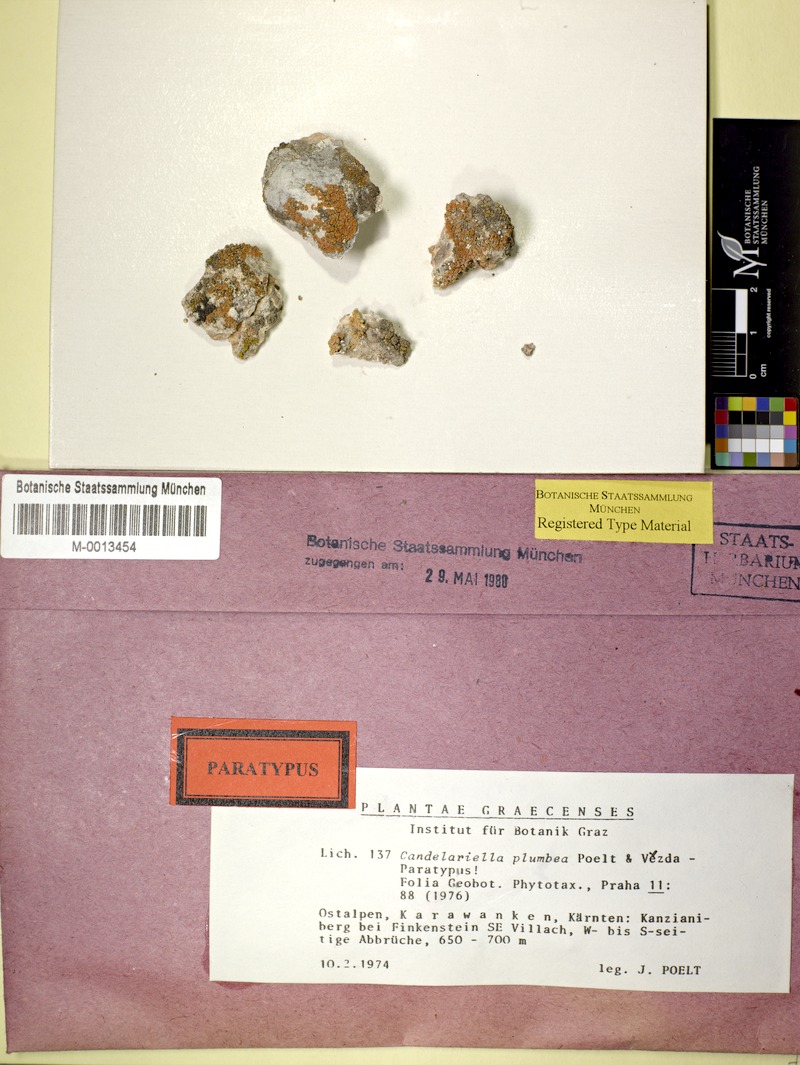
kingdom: Fungi
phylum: Ascomycota
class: Candelariomycetes
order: Candelariales
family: Candelariaceae
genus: Candelariella
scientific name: Candelariella plumbea
